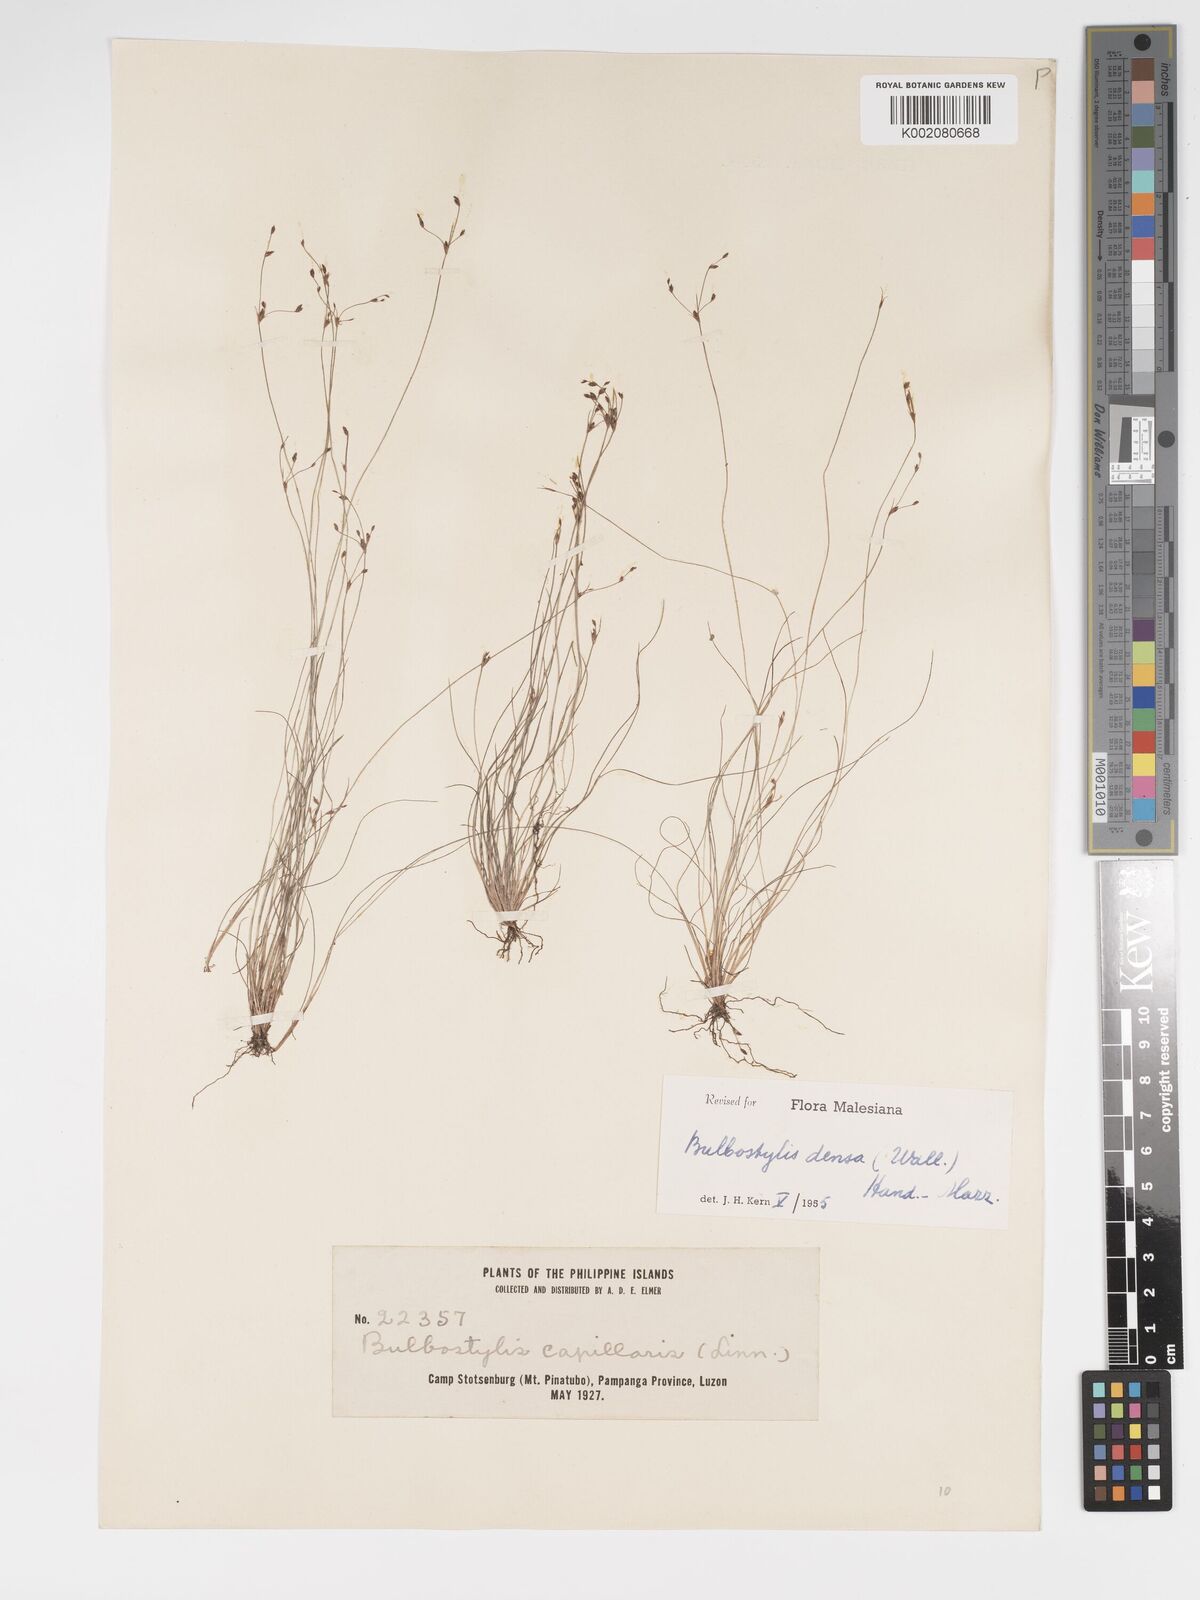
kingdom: Plantae
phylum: Tracheophyta
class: Liliopsida
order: Poales
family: Cyperaceae
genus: Bulbostylis
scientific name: Bulbostylis densa
